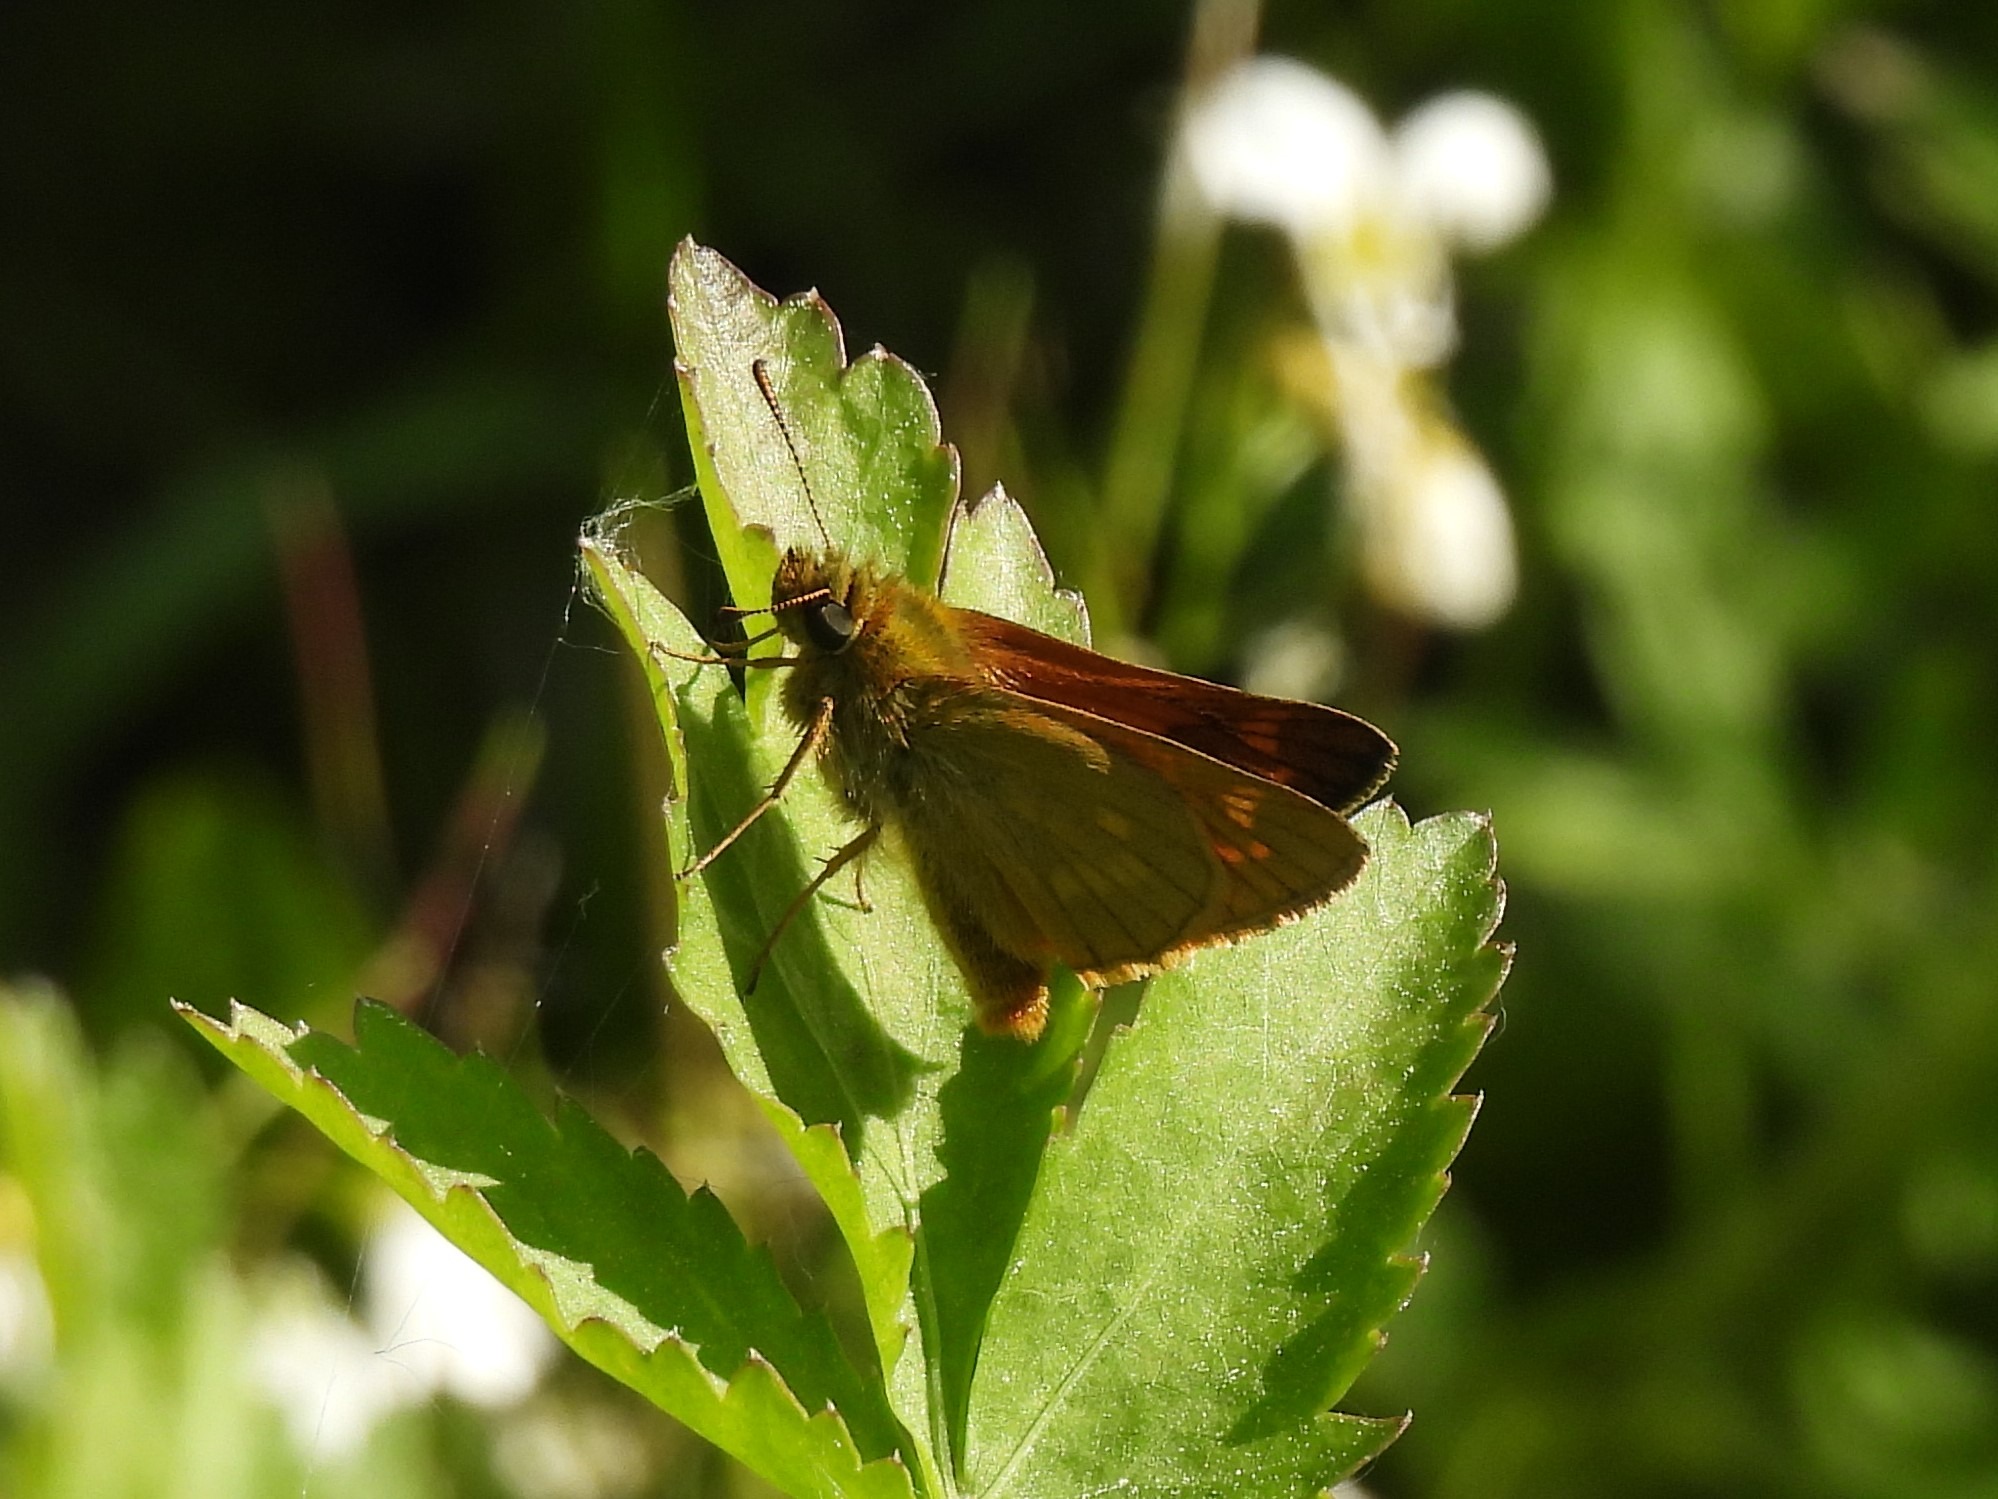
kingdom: Animalia
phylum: Arthropoda
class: Insecta
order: Lepidoptera
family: Hesperiidae
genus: Ochlodes
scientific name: Ochlodes venata
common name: Stor bredpande
